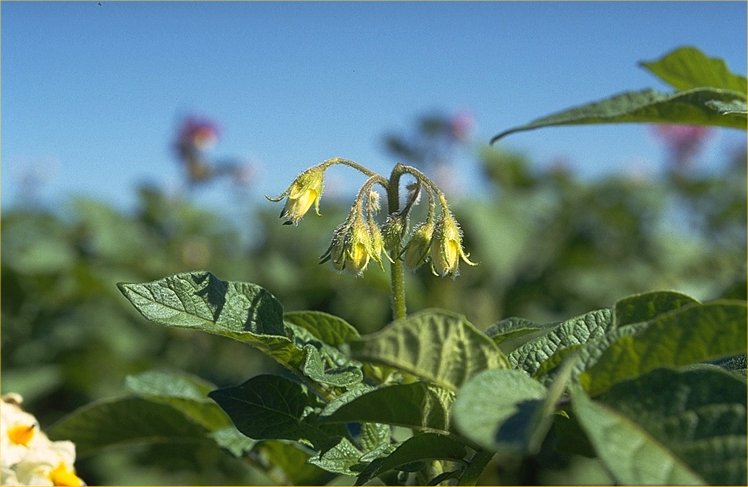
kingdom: Plantae
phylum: Tracheophyta
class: Magnoliopsida
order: Solanales
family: Solanaceae
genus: Solanum
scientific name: Solanum tuberosum
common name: Potato
